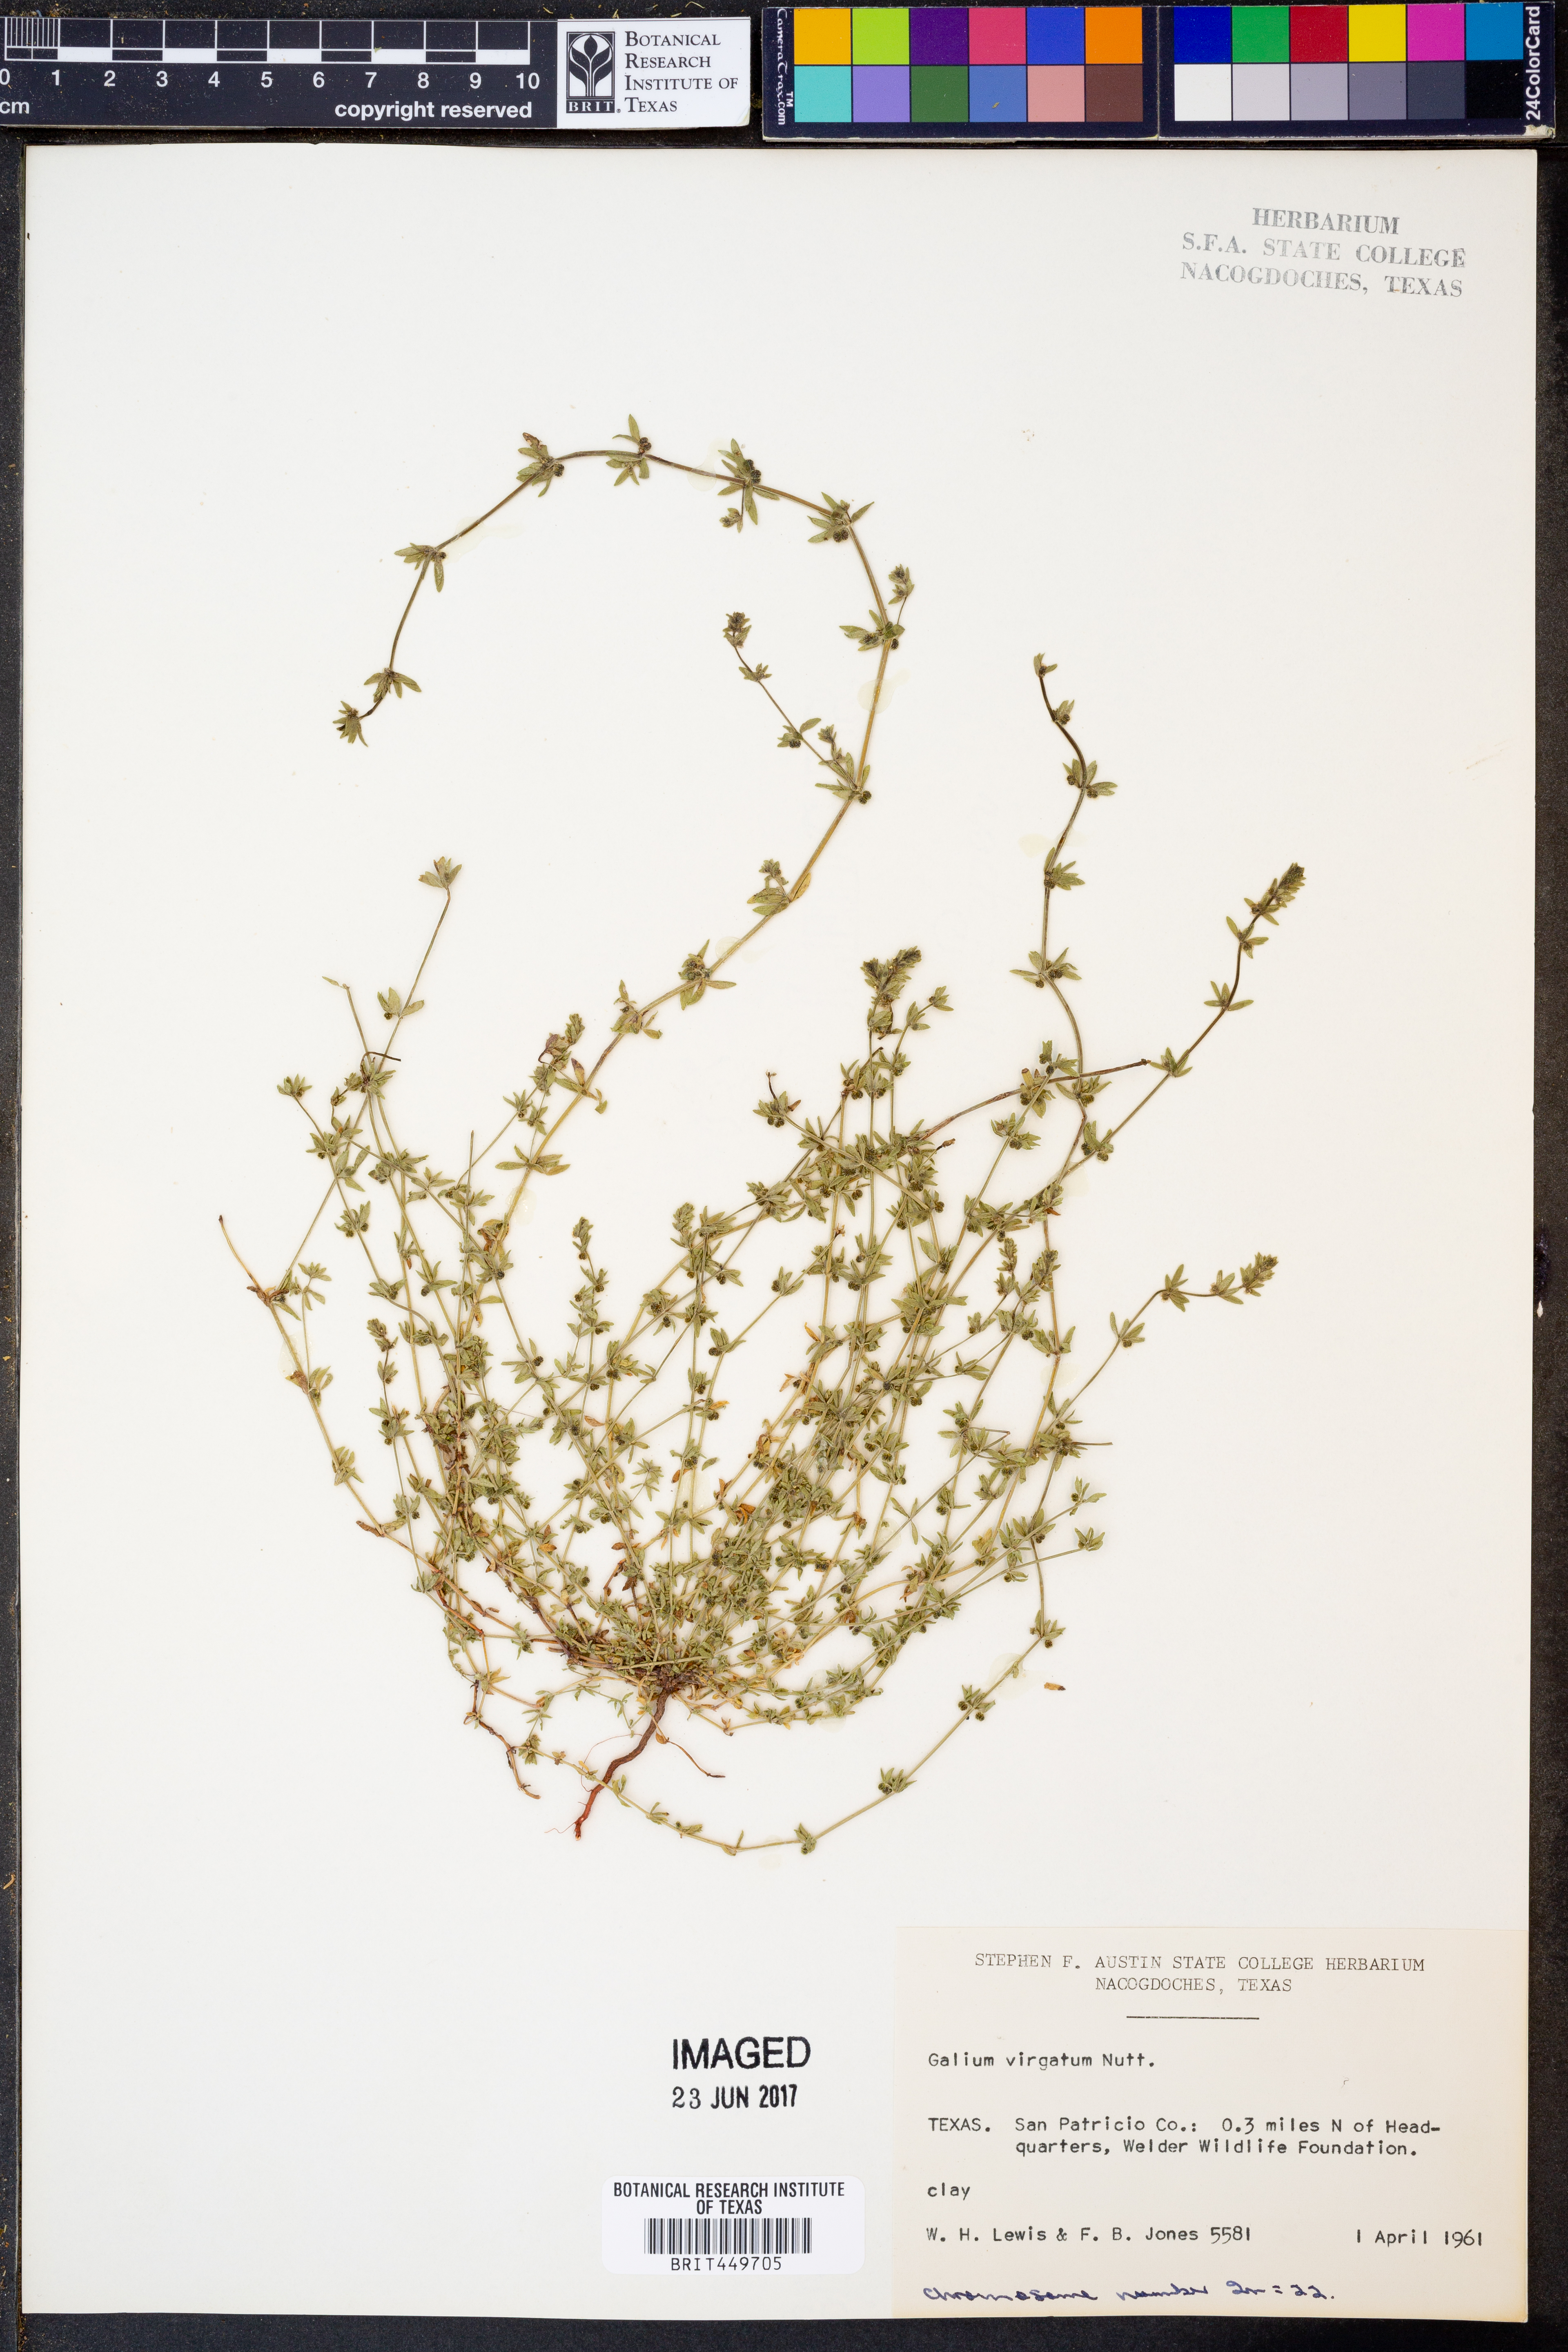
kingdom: Plantae
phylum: Tracheophyta
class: Magnoliopsida
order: Gentianales
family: Rubiaceae
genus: Galium
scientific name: Galium virgatum
